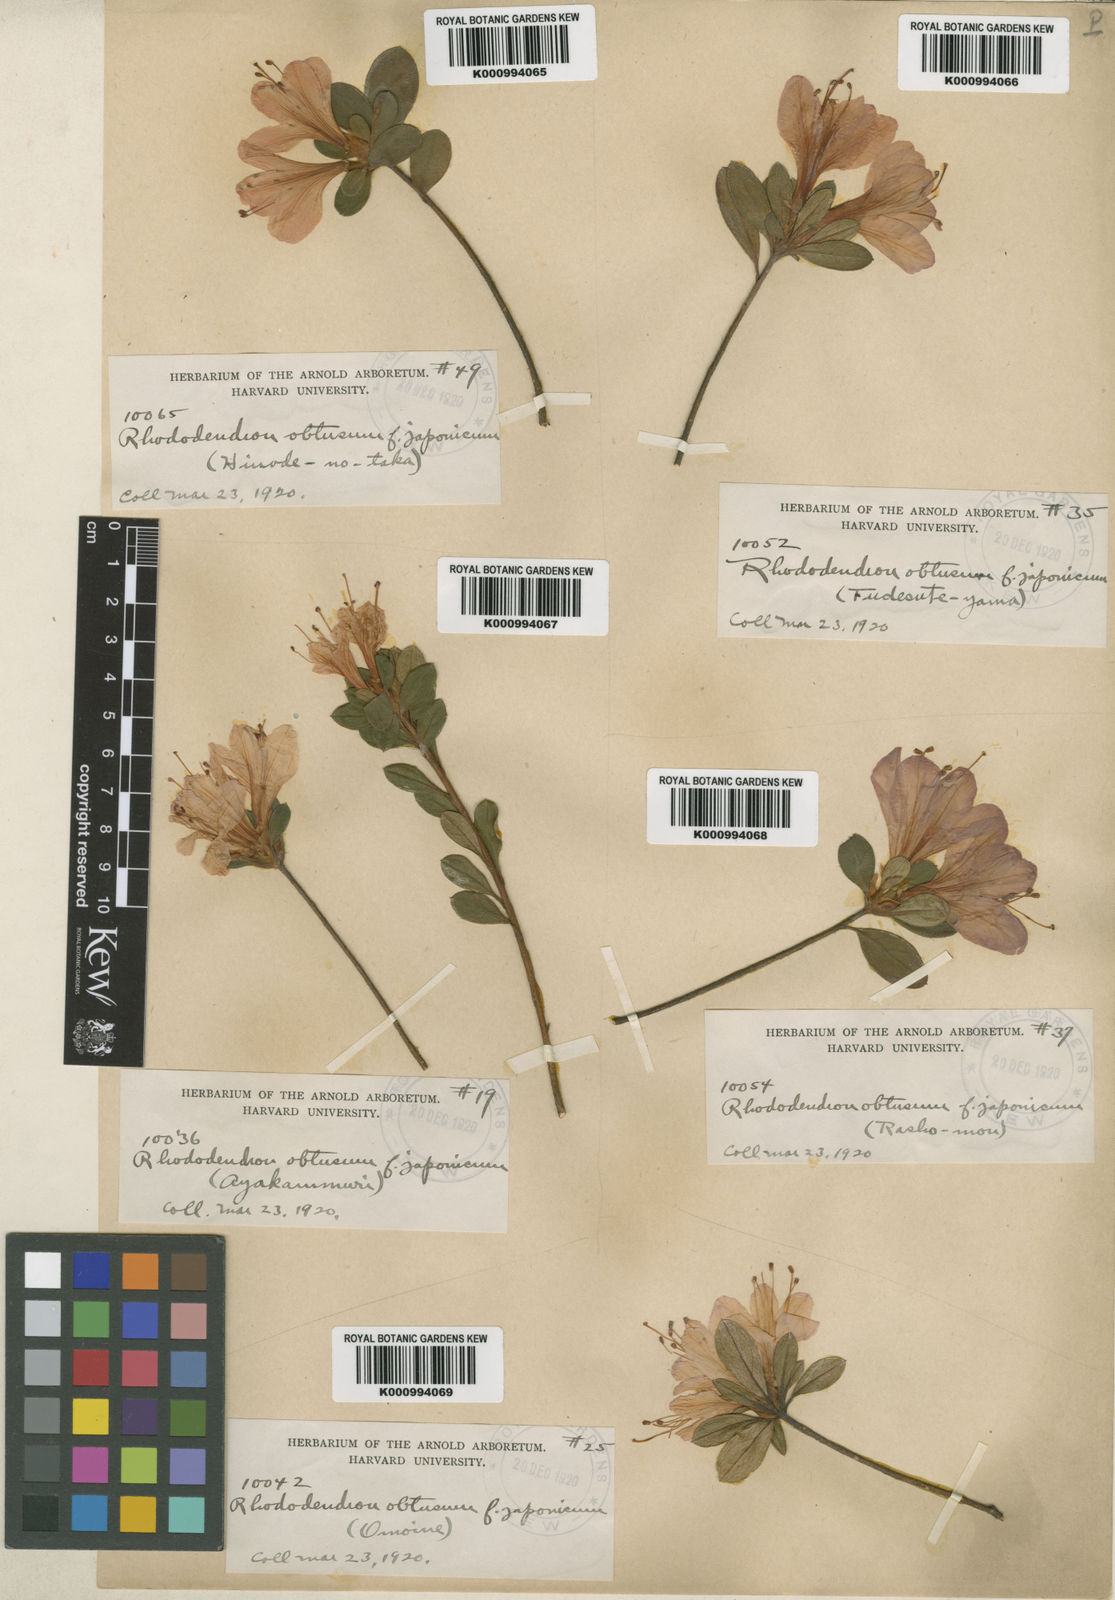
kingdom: Plantae
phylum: Tracheophyta
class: Magnoliopsida
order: Ericales
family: Ericaceae
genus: Rhododendron
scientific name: Rhododendron kiusianum
